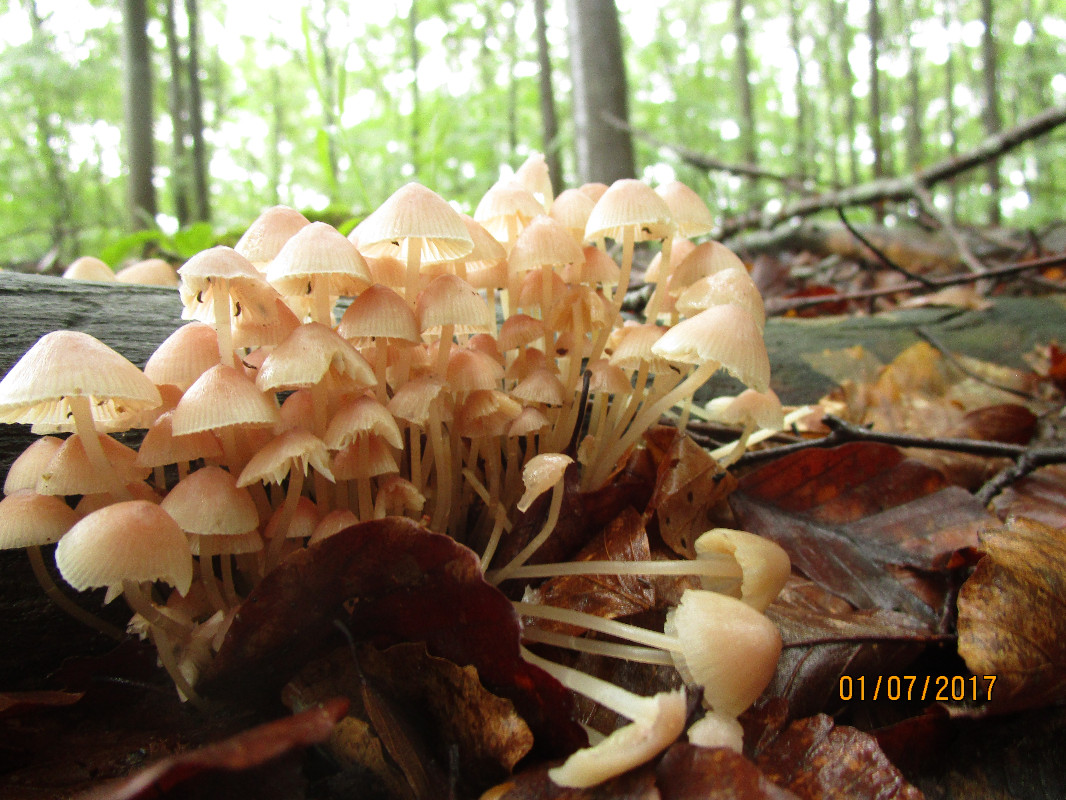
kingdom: Fungi
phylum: Basidiomycota
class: Agaricomycetes
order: Agaricales
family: Mycenaceae
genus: Mycena
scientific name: Mycena renati
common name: smuk huesvamp
